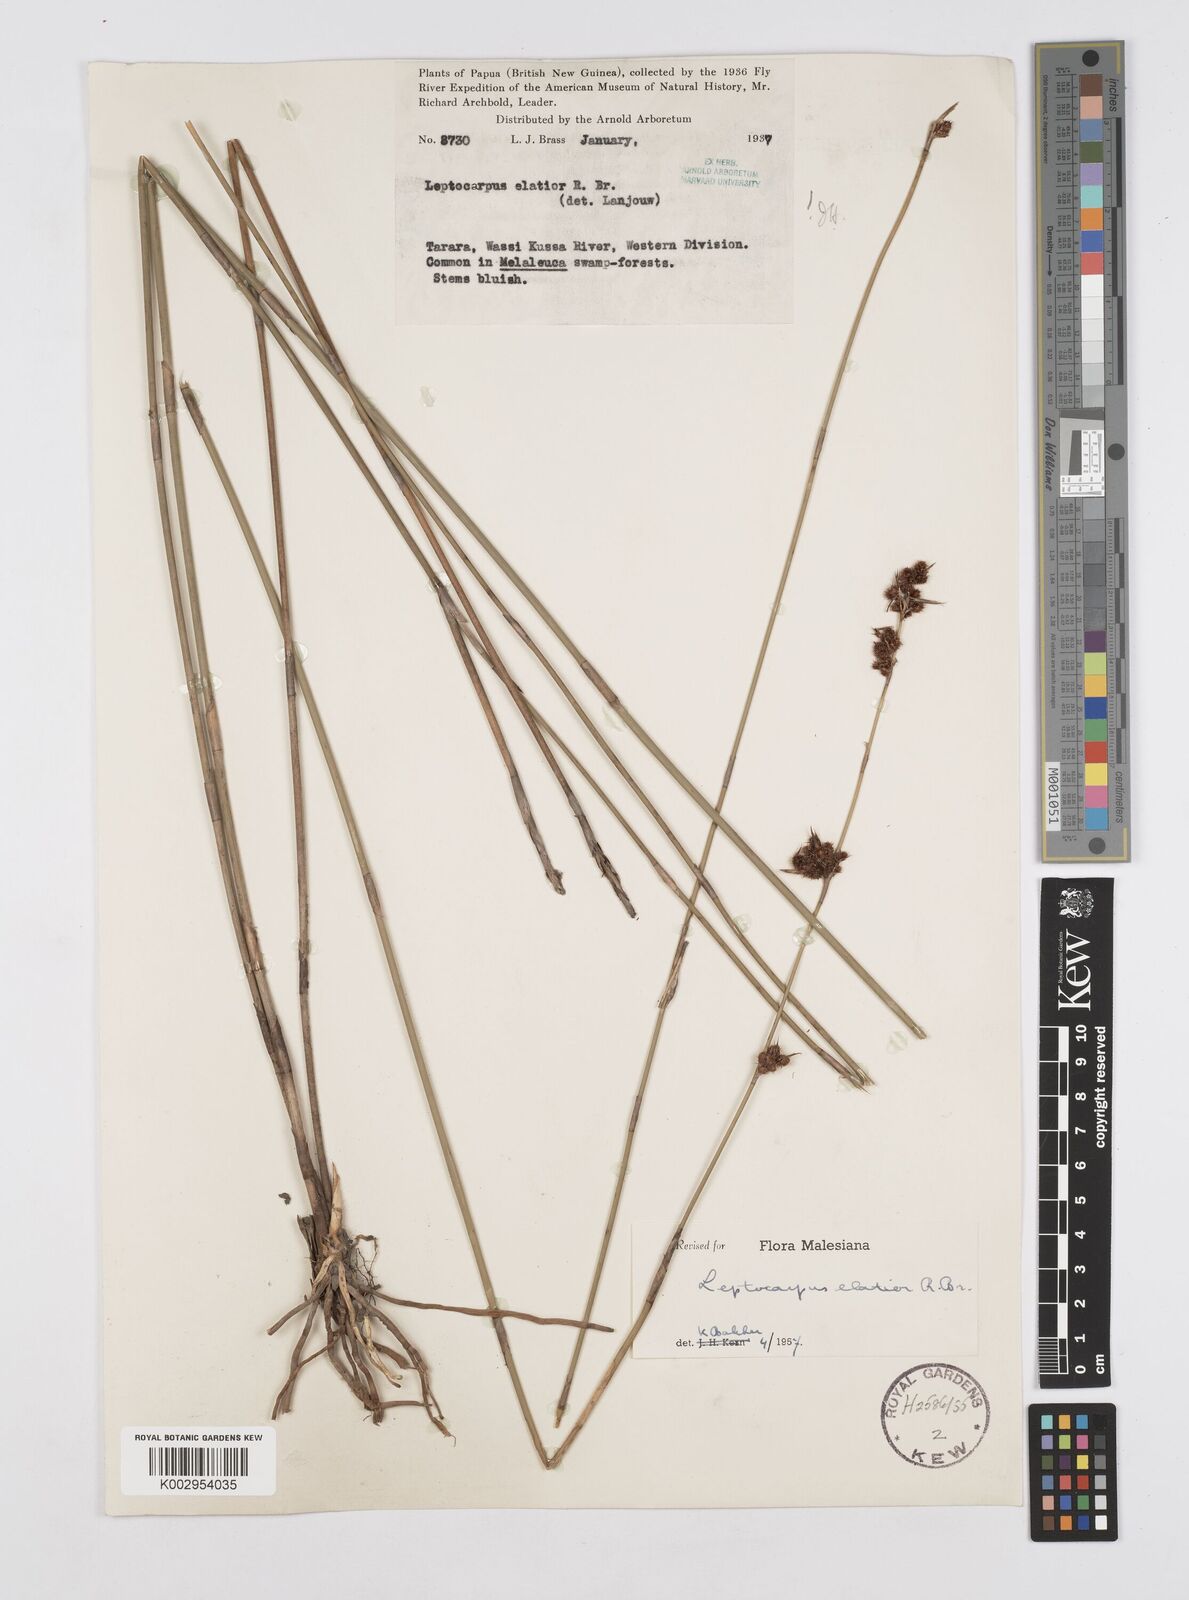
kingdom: Plantae
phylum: Tracheophyta
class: Liliopsida
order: Poales
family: Restionaceae
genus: Dapsilanthus
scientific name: Dapsilanthus elatior
